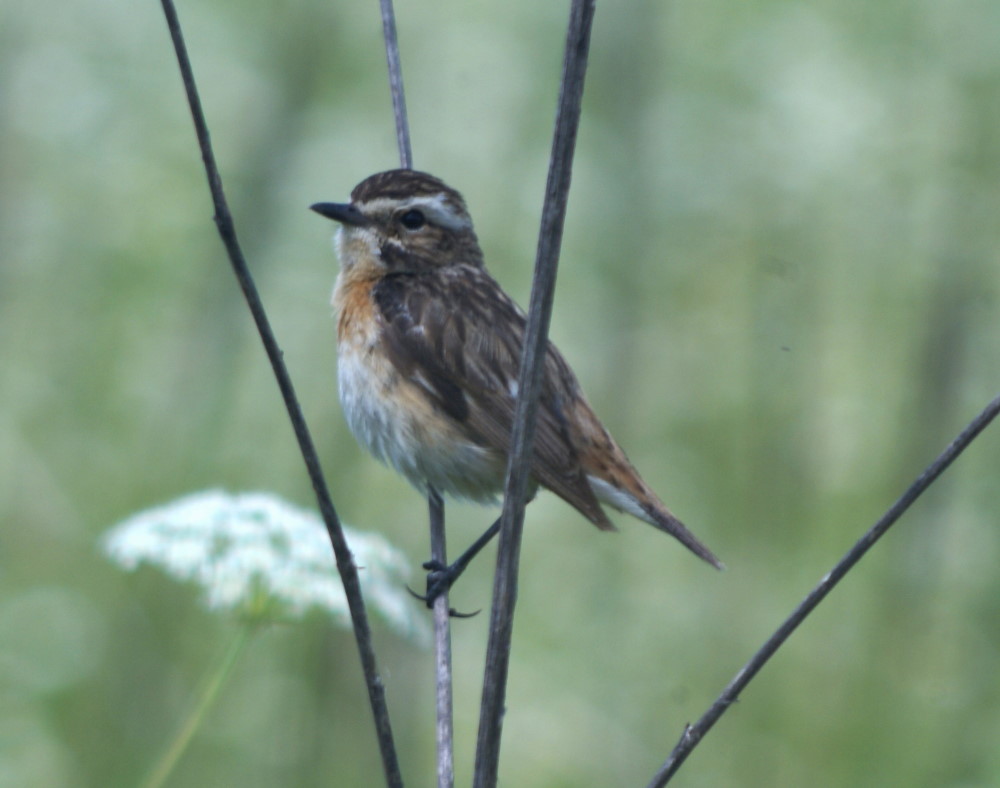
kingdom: Animalia
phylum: Chordata
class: Aves
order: Passeriformes
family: Muscicapidae
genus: Saxicola
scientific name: Saxicola rubetra
